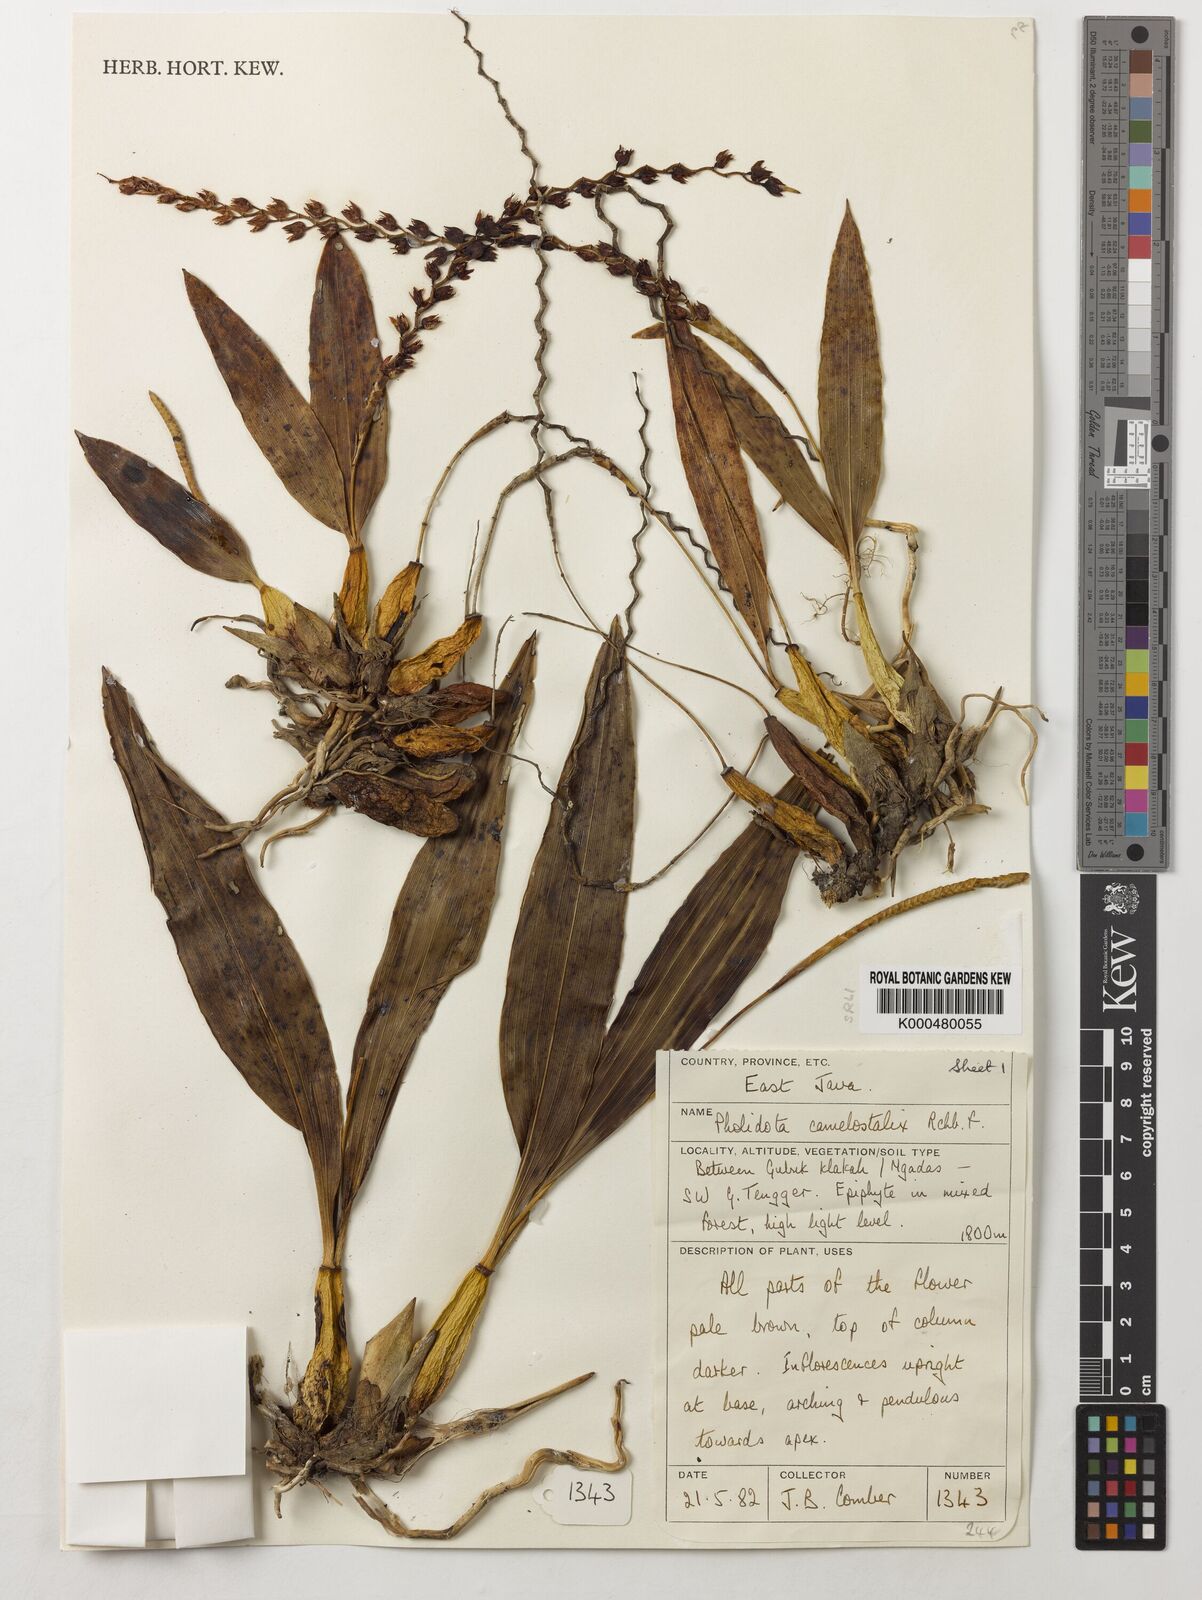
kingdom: Plantae
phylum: Tracheophyta
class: Liliopsida
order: Asparagales
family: Orchidaceae
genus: Coelogyne
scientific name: Coelogyne camelostalix
